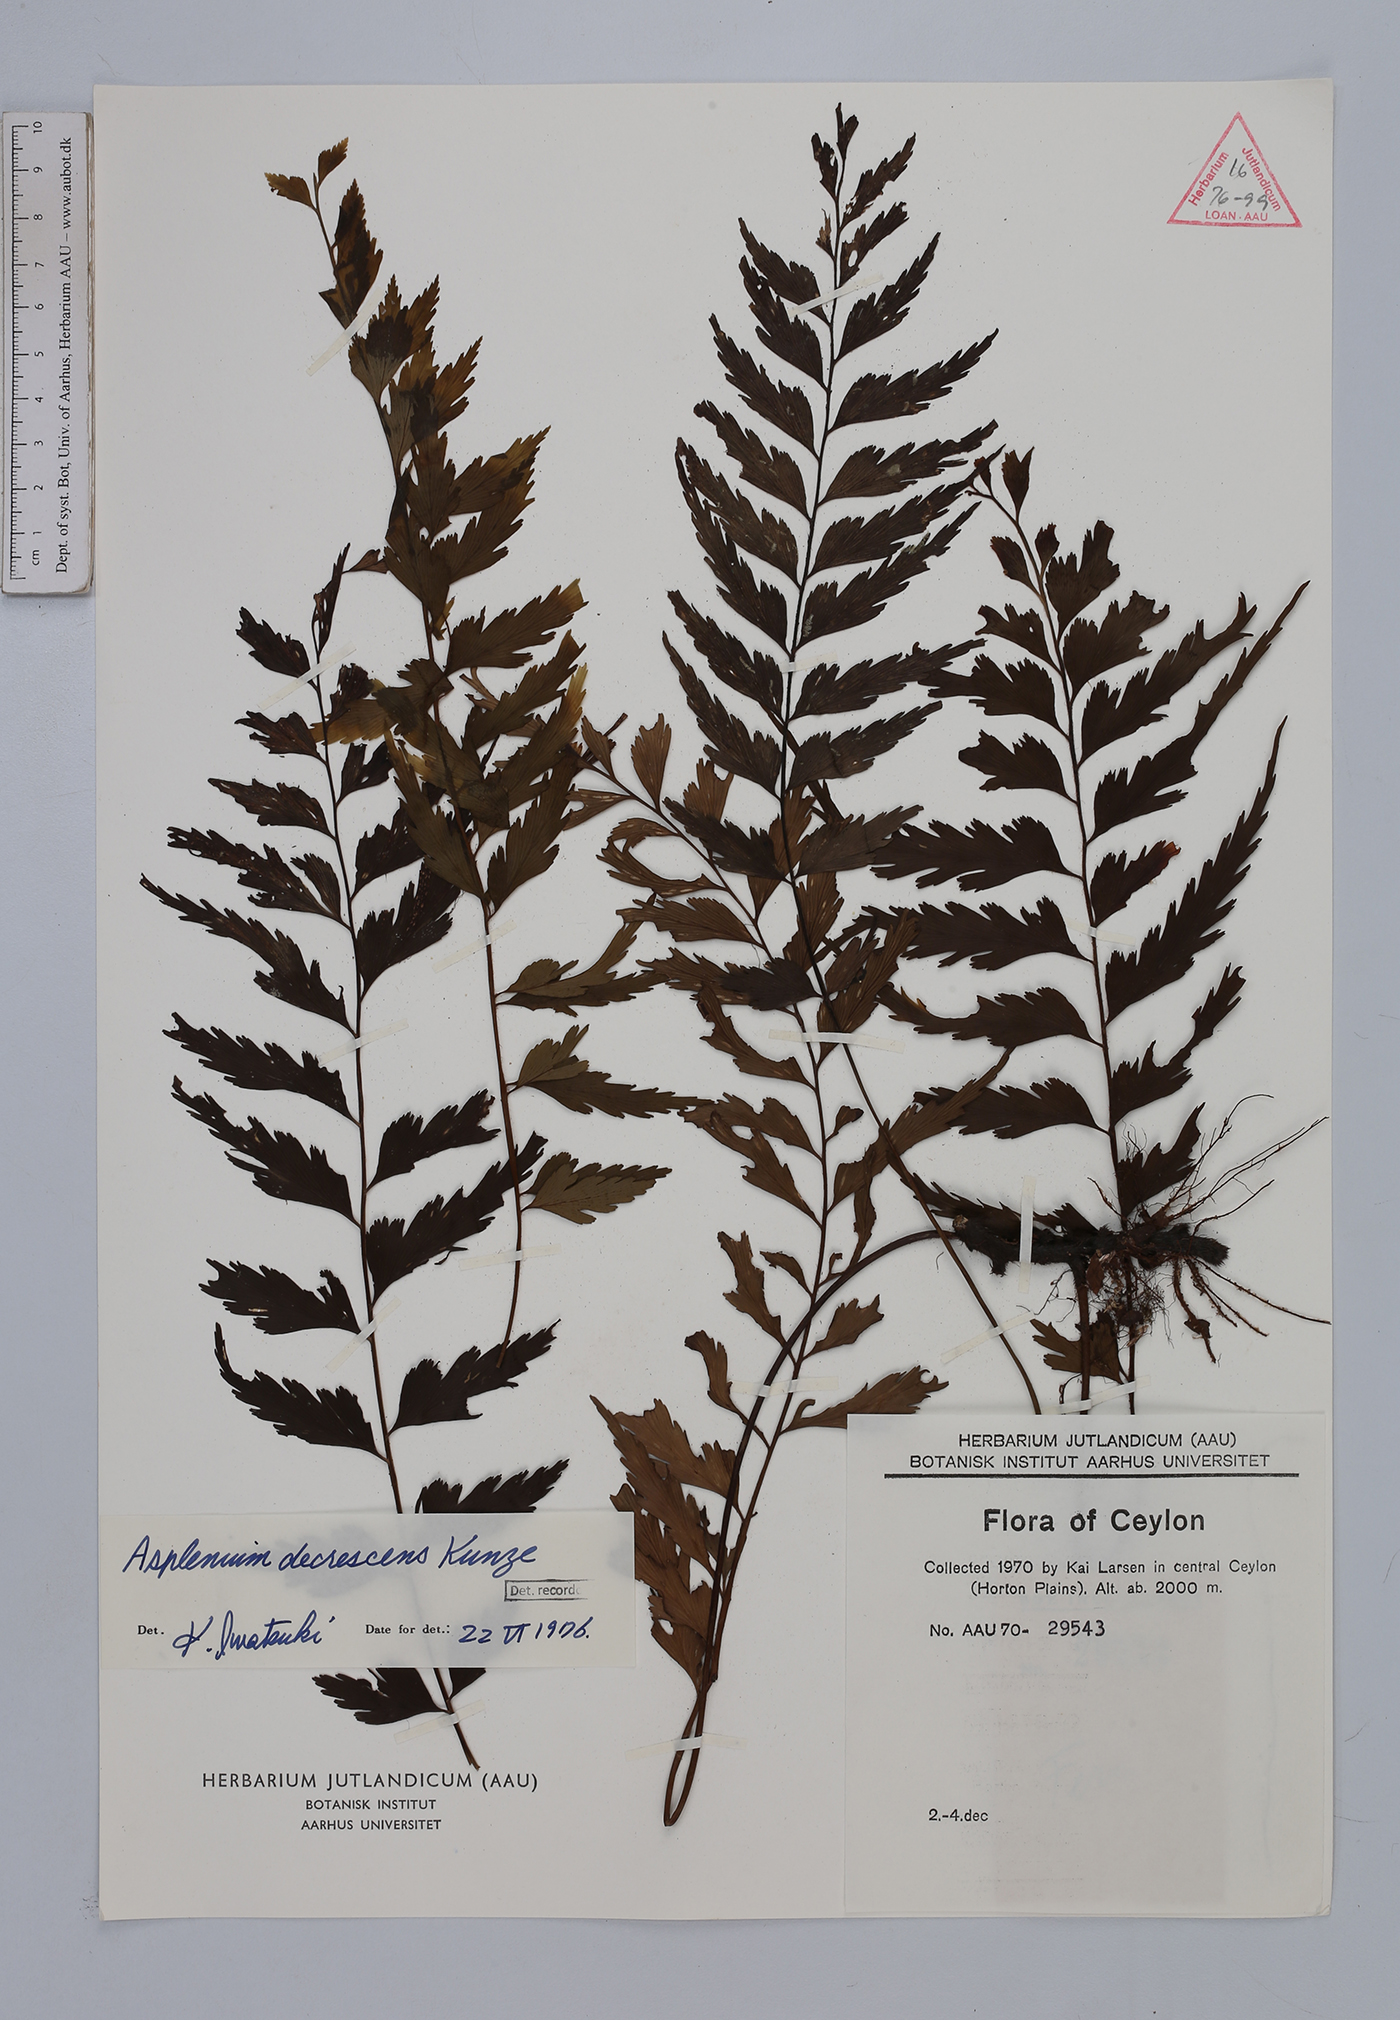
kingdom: Plantae
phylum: Tracheophyta
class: Polypodiopsida
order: Polypodiales
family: Aspleniaceae
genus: Asplenium
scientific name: Asplenium decrescens
